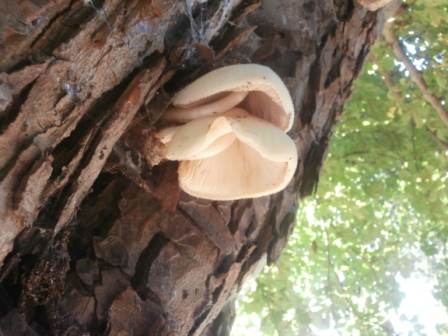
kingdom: Fungi
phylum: Basidiomycota
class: Agaricomycetes
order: Agaricales
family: Pluteaceae
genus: Volvariella
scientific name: Volvariella bombycina
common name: silkehåret posesvamp
